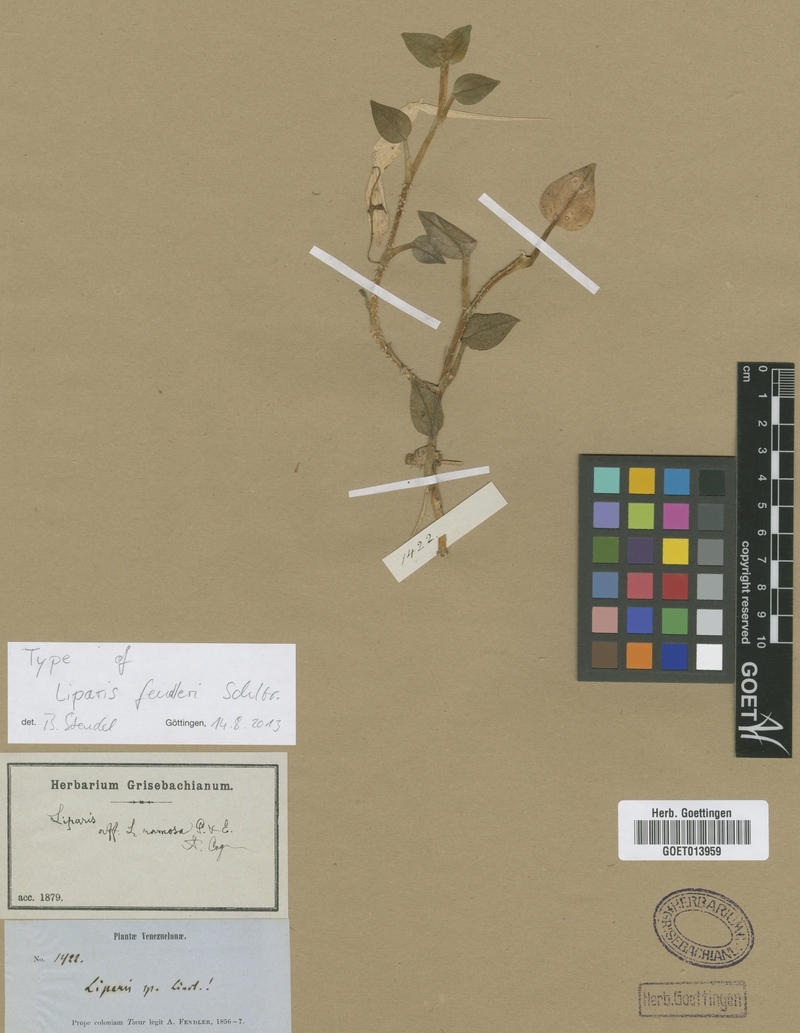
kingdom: Plantae
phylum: Tracheophyta
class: Liliopsida
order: Asparagales
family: Orchidaceae
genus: Liparis
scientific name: Liparis brachystalix
